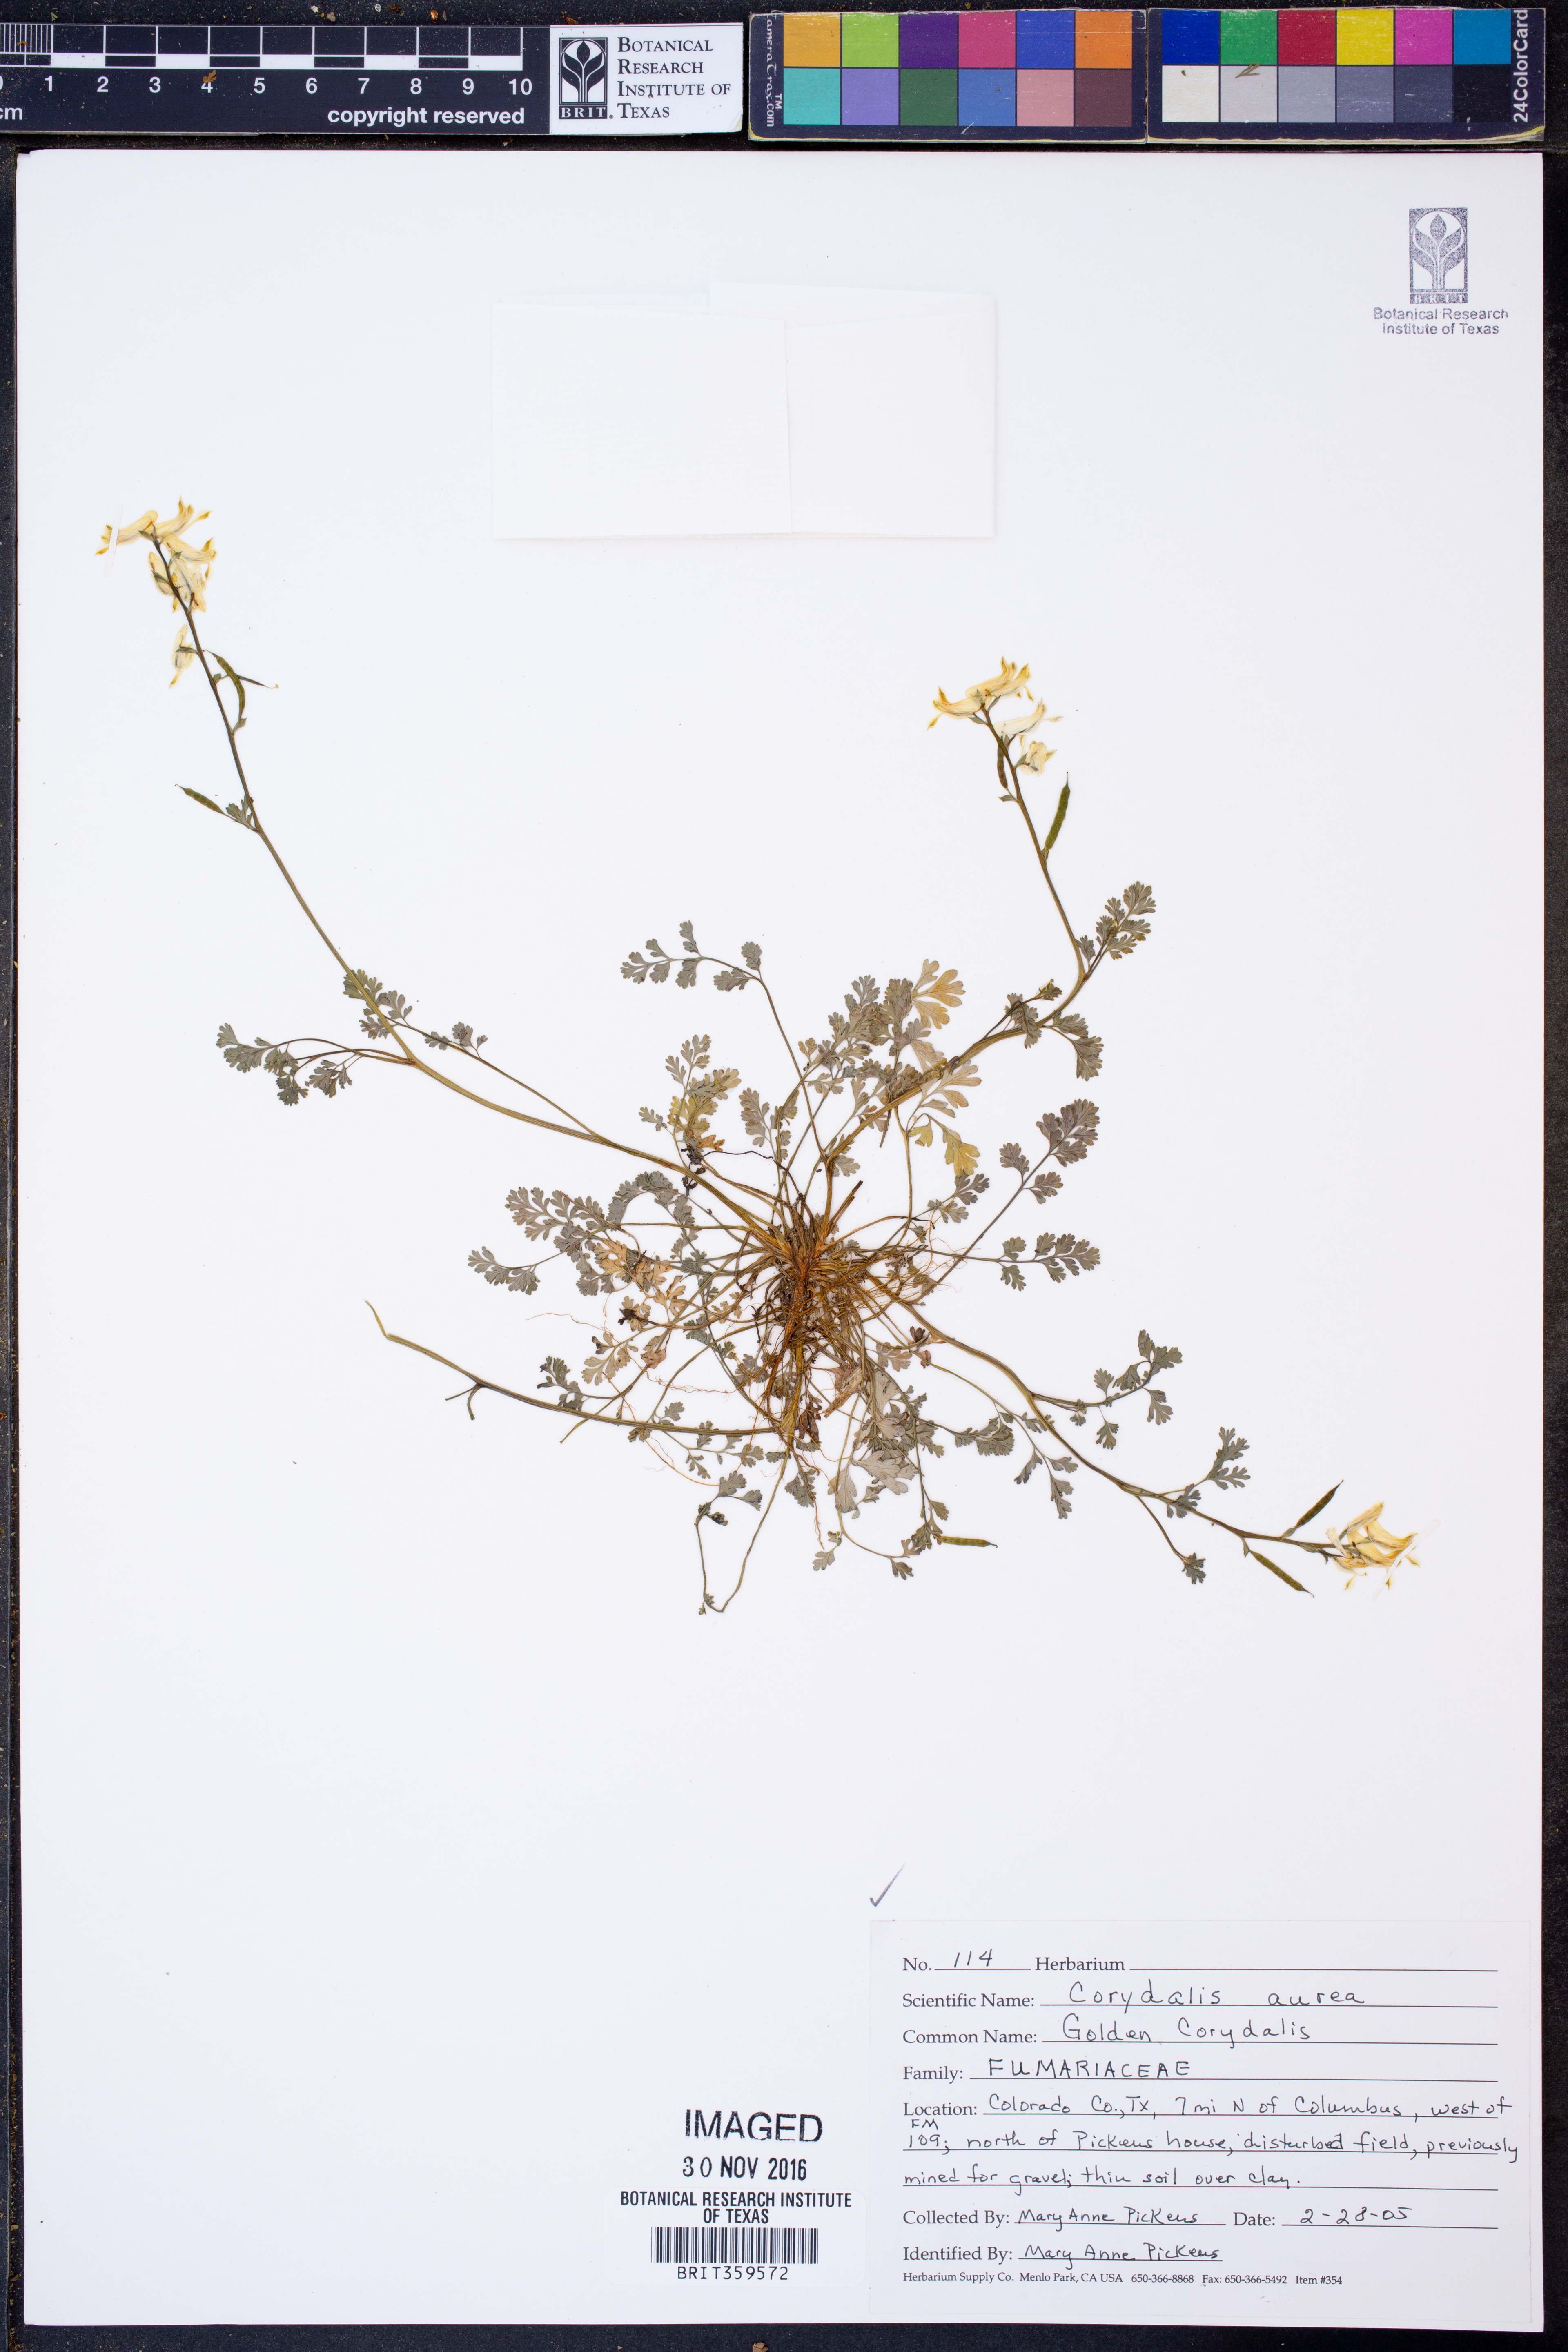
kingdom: Plantae
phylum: Tracheophyta
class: Magnoliopsida
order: Ranunculales
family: Papaveraceae
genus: Corydalis
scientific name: Corydalis aurea
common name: Golden corydalis
